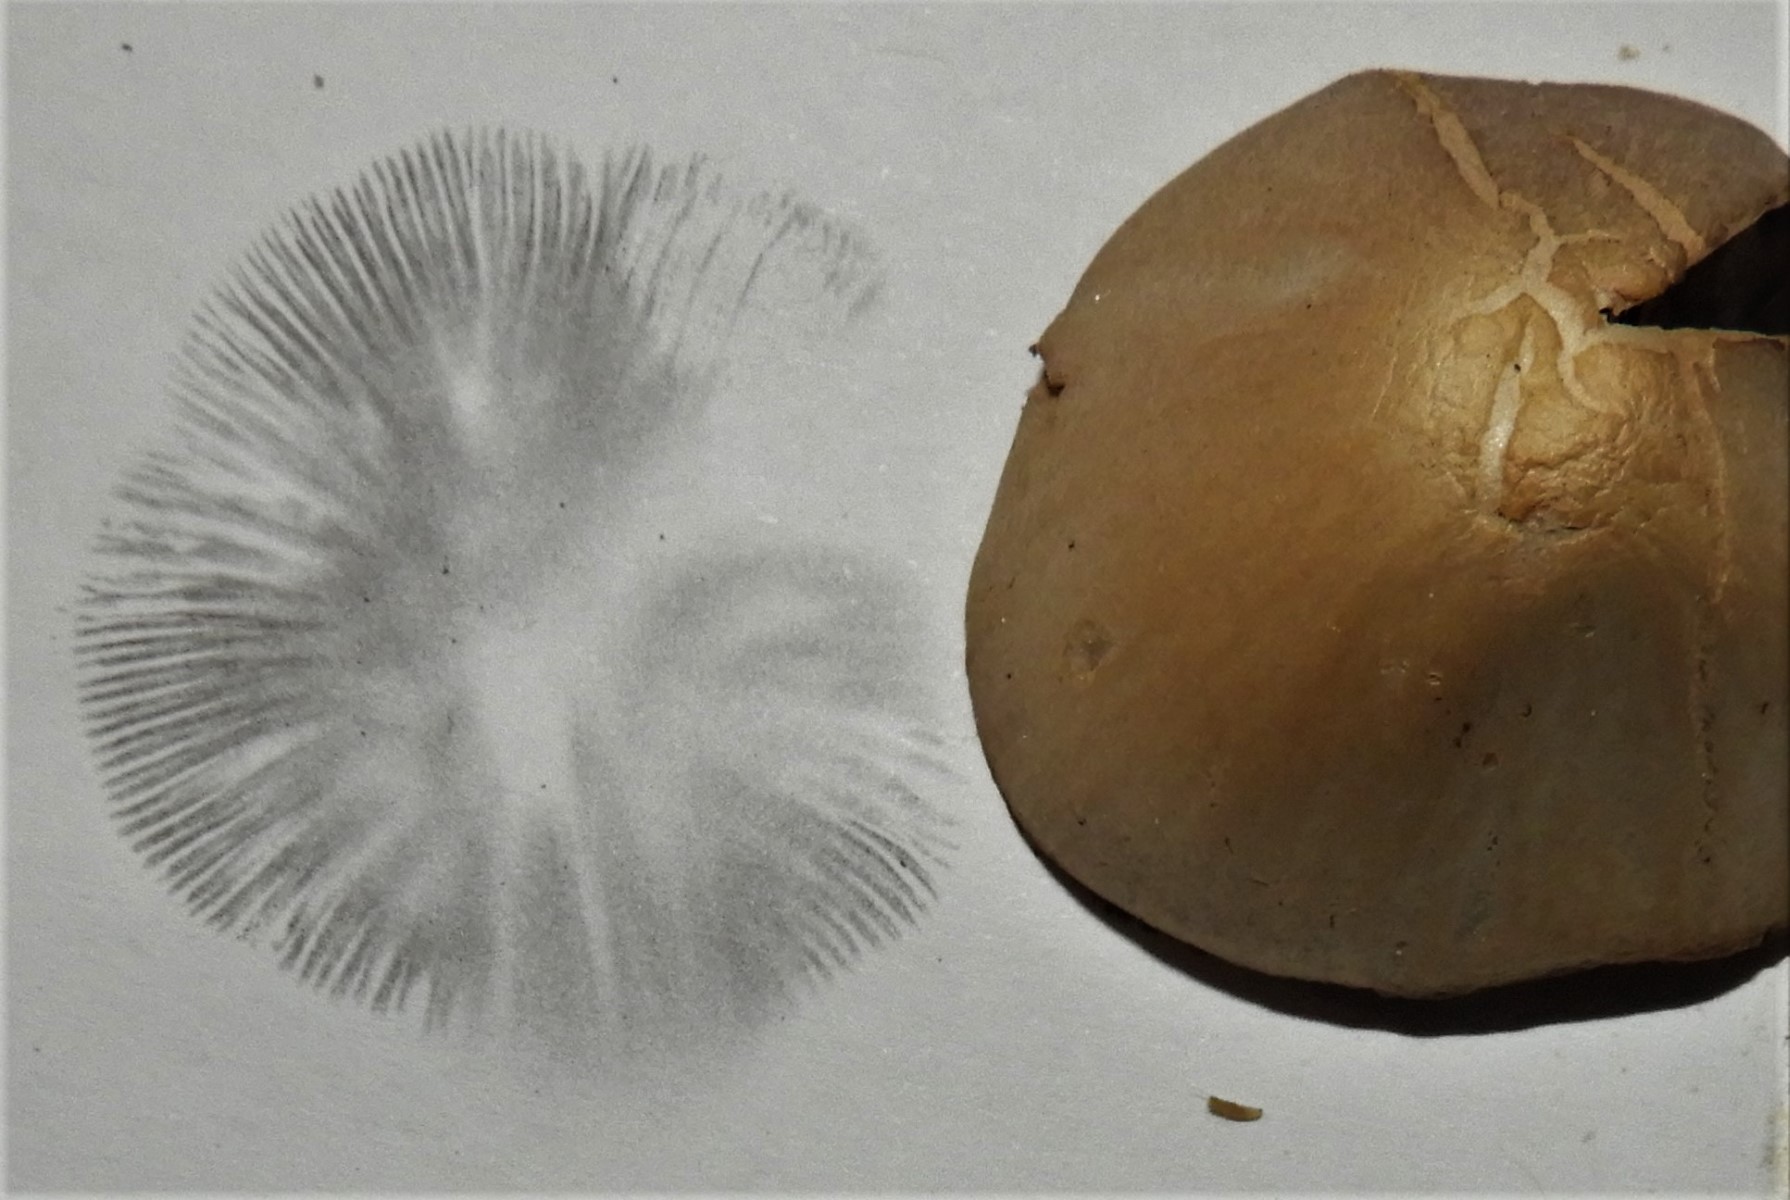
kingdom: Fungi
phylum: Basidiomycota
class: Agaricomycetes
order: Agaricales
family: Psathyrellaceae
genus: Parasola
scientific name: Parasola conopilea
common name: kegle-hjulhat
